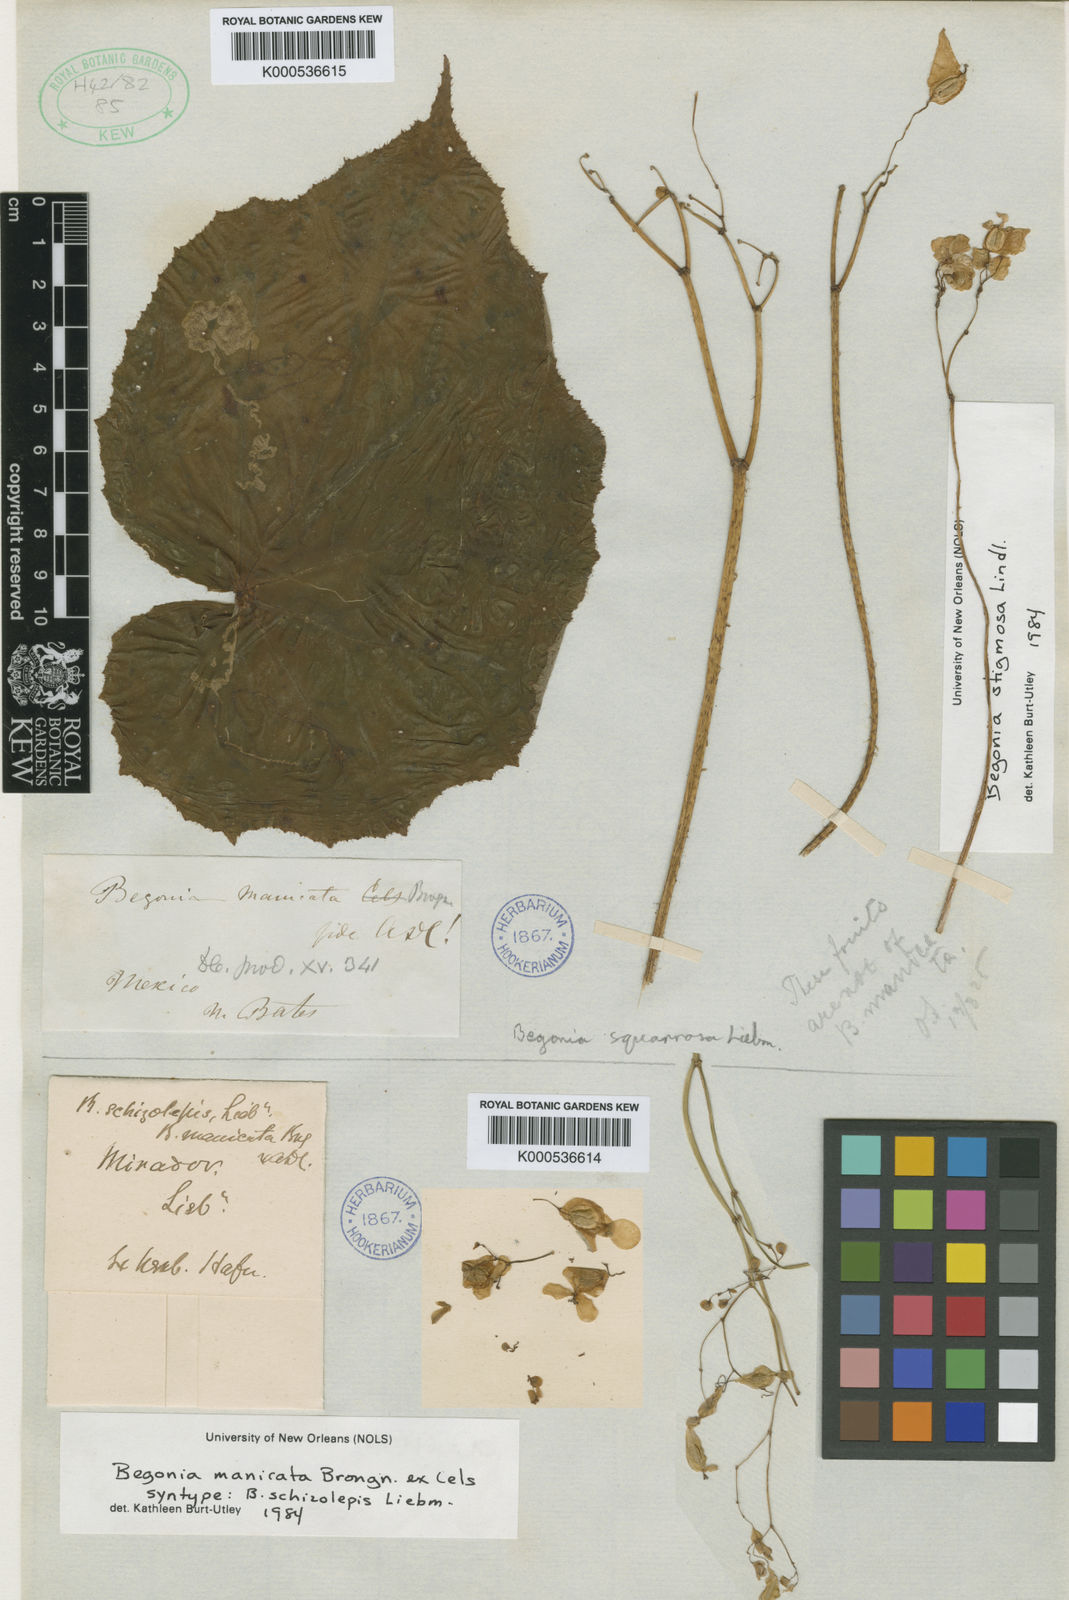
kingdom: Plantae
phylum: Tracheophyta
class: Magnoliopsida
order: Cucurbitales
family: Begoniaceae
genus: Begonia
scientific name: Begonia
